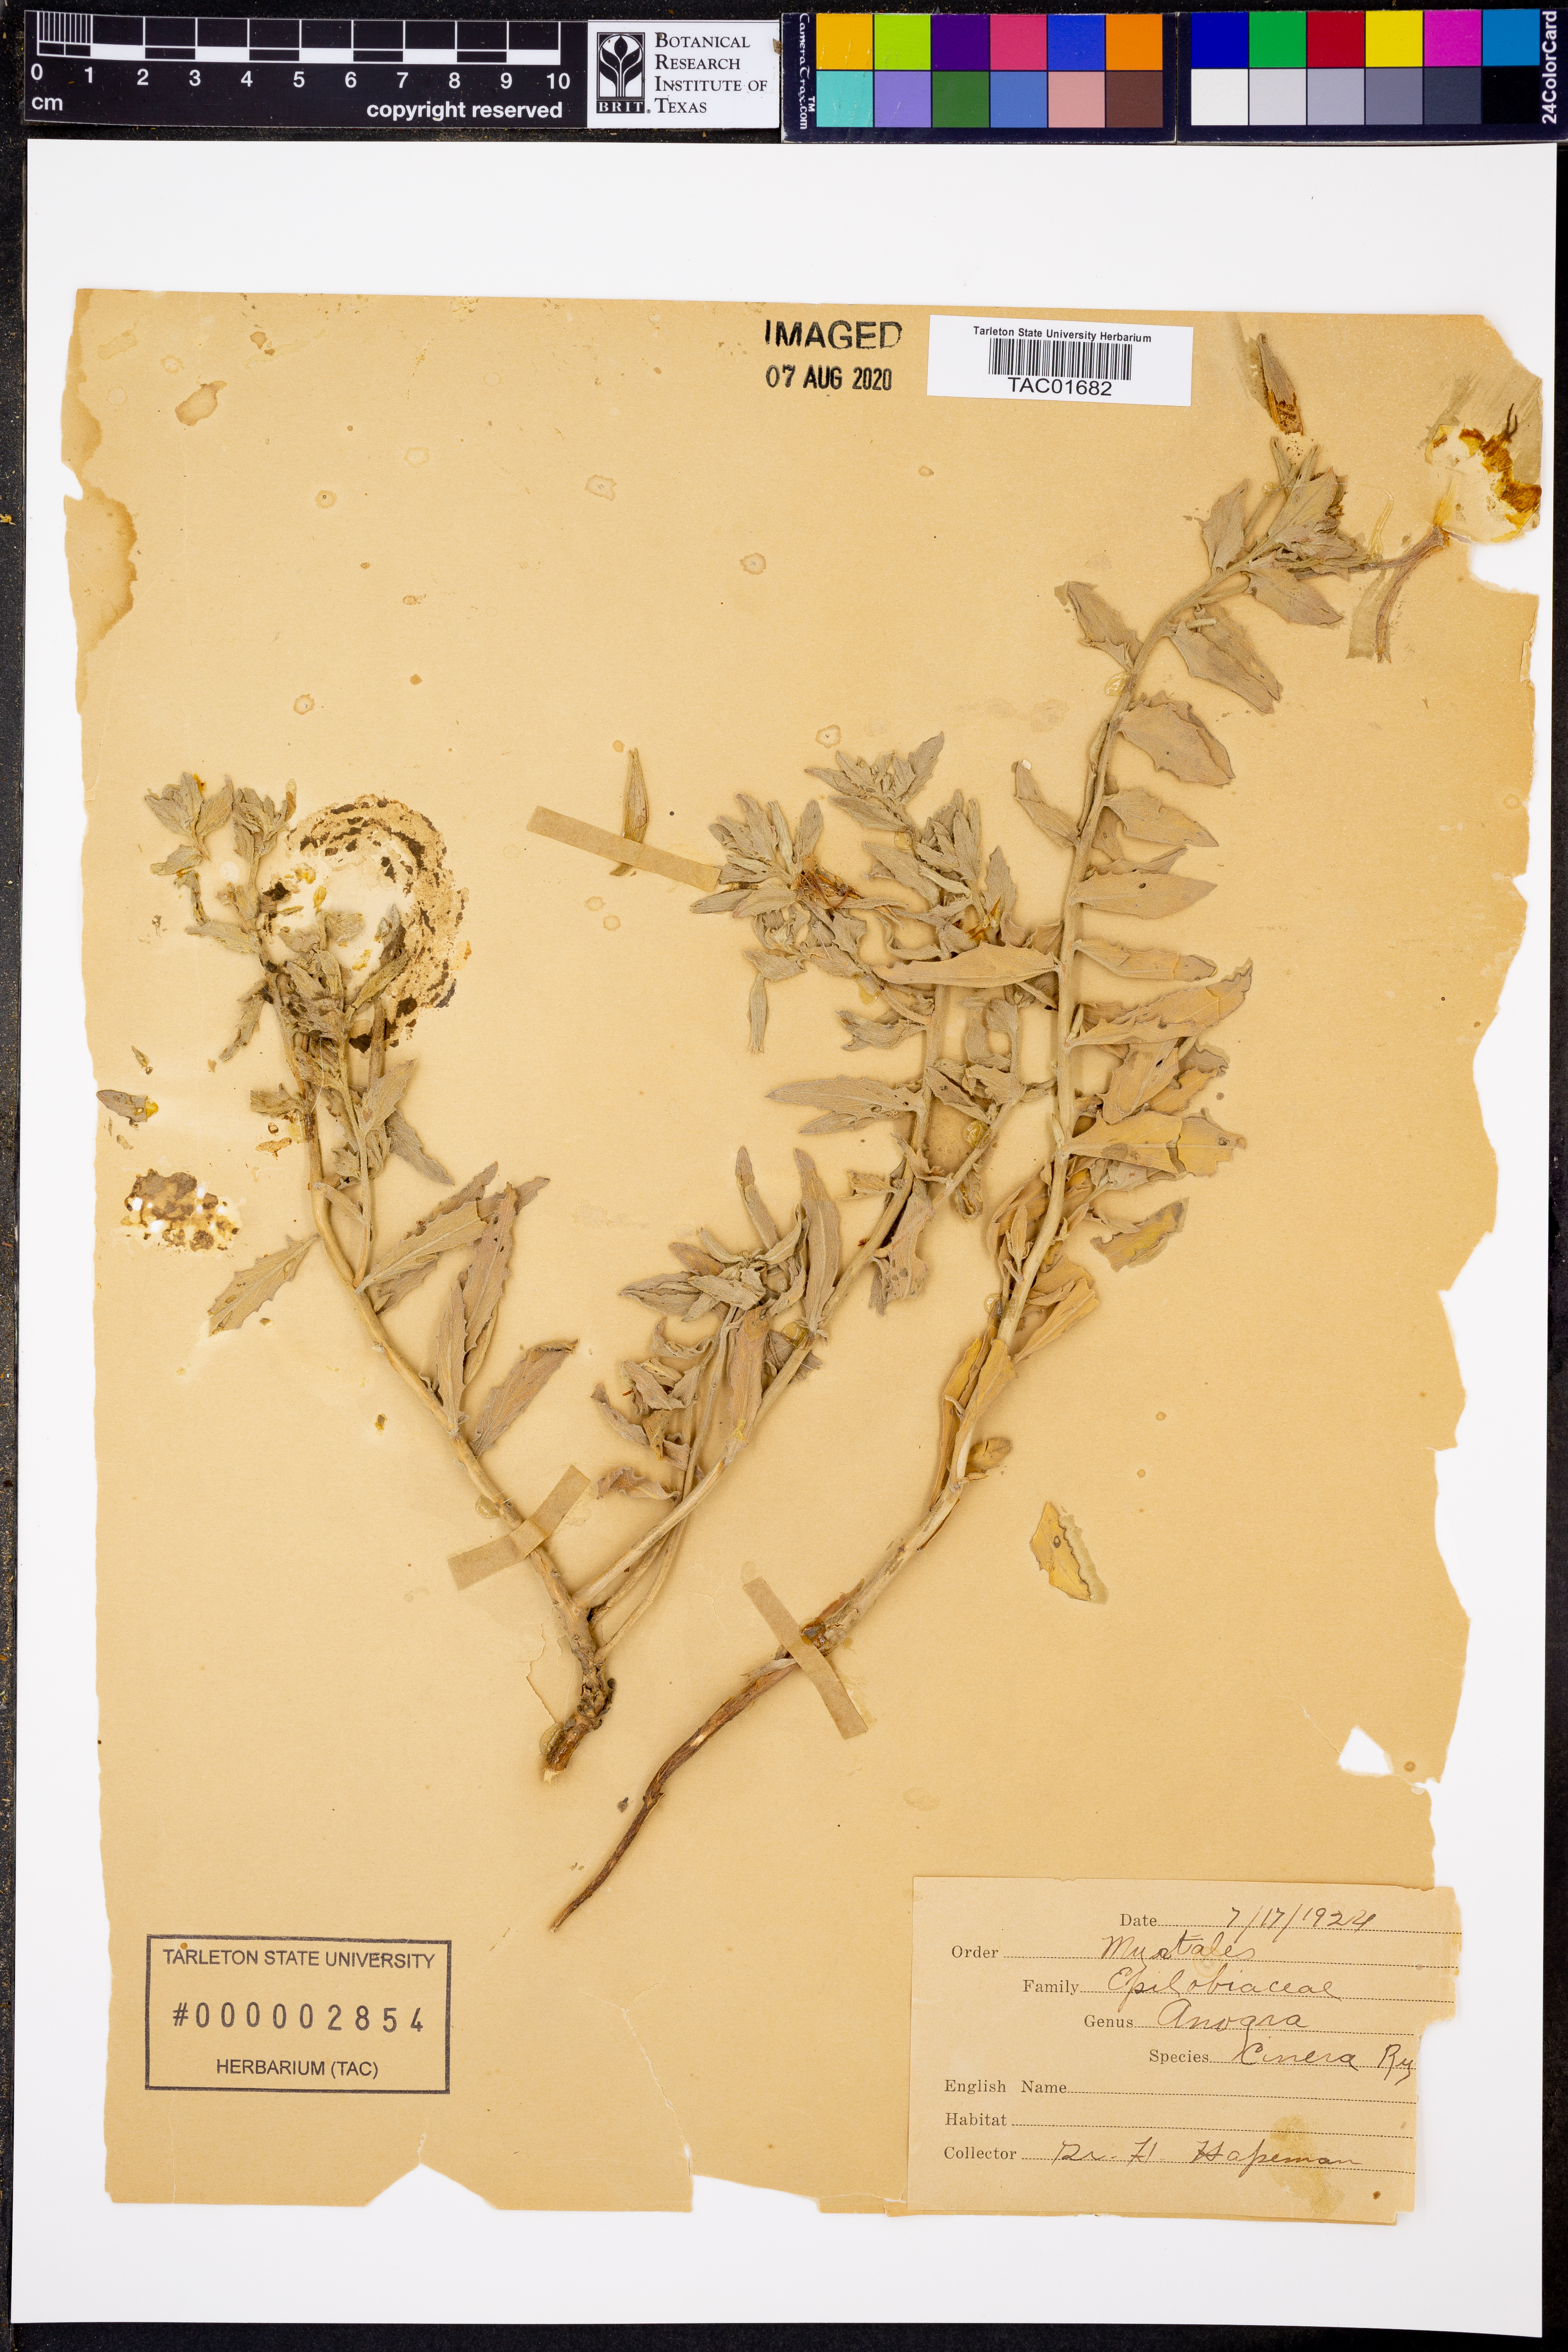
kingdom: Plantae
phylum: Tracheophyta
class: Magnoliopsida
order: Myrtales
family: Onagraceae
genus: Oenothera
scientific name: Oenothera latifolia
